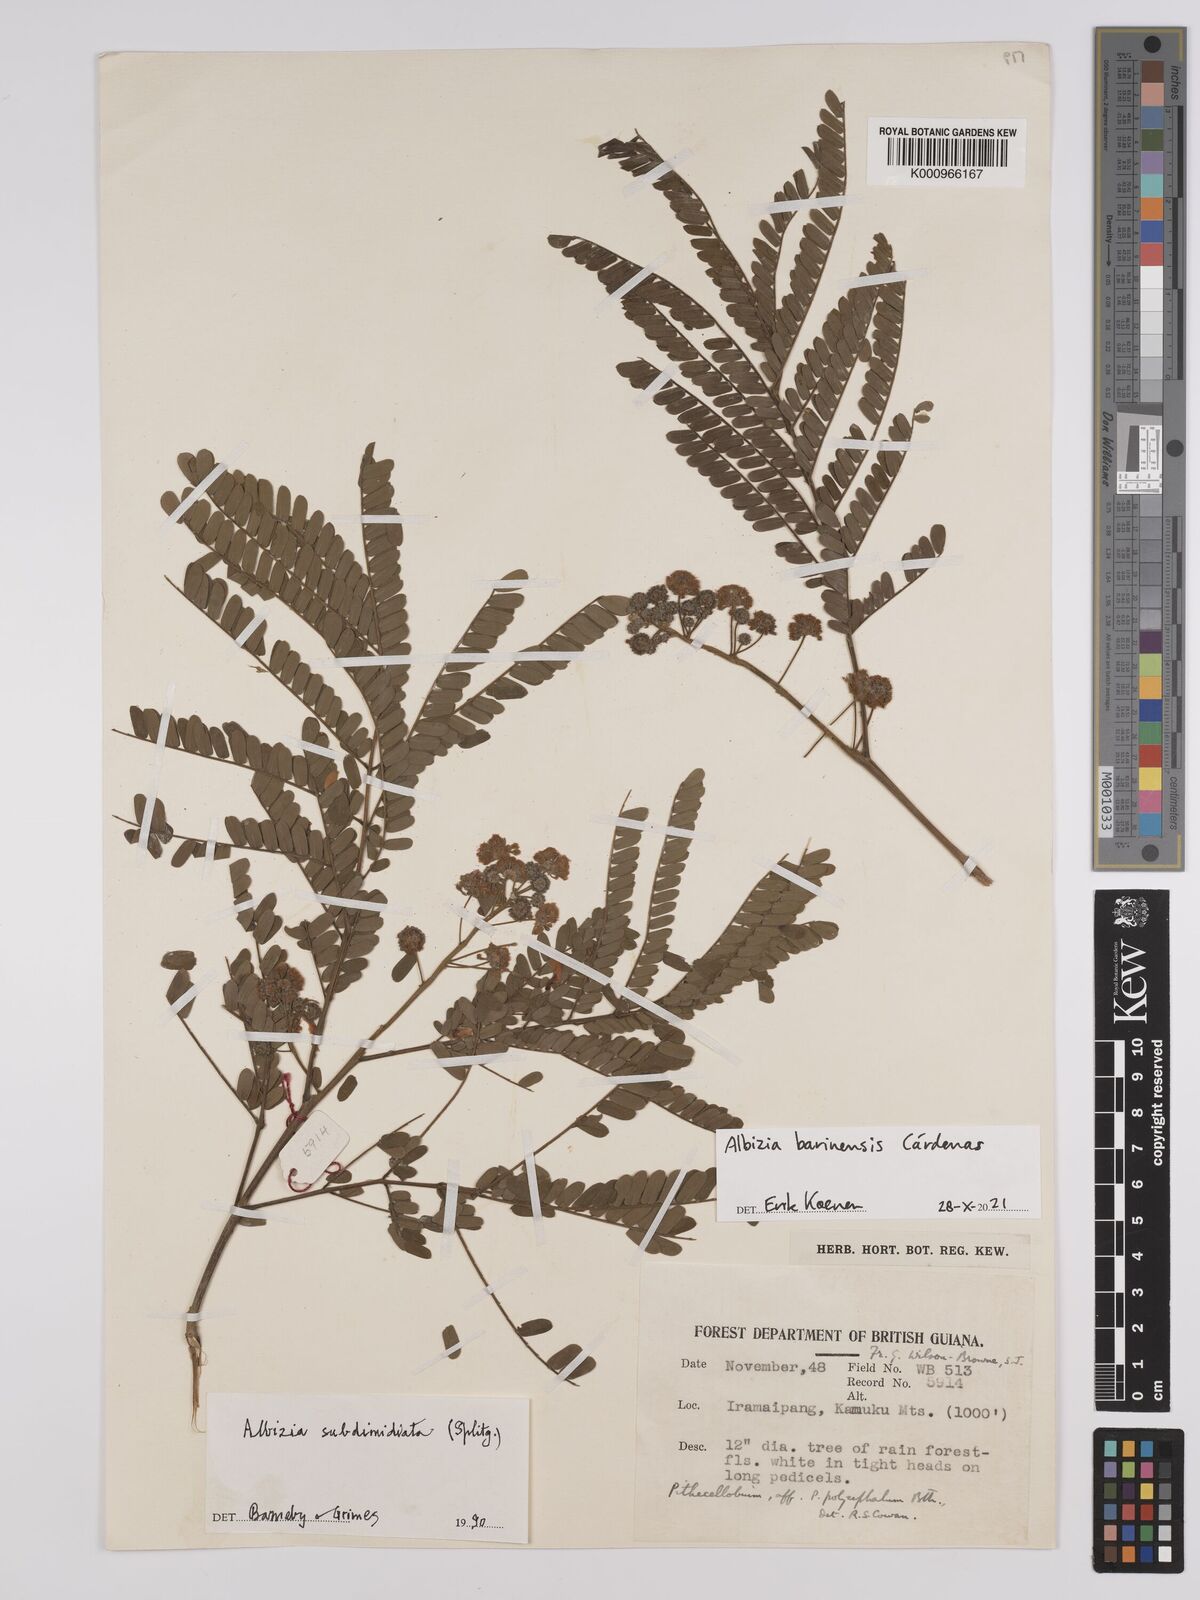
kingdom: Plantae
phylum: Tracheophyta
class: Magnoliopsida
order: Fabales
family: Fabaceae
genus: Albizia
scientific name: Albizia subdimidiata
